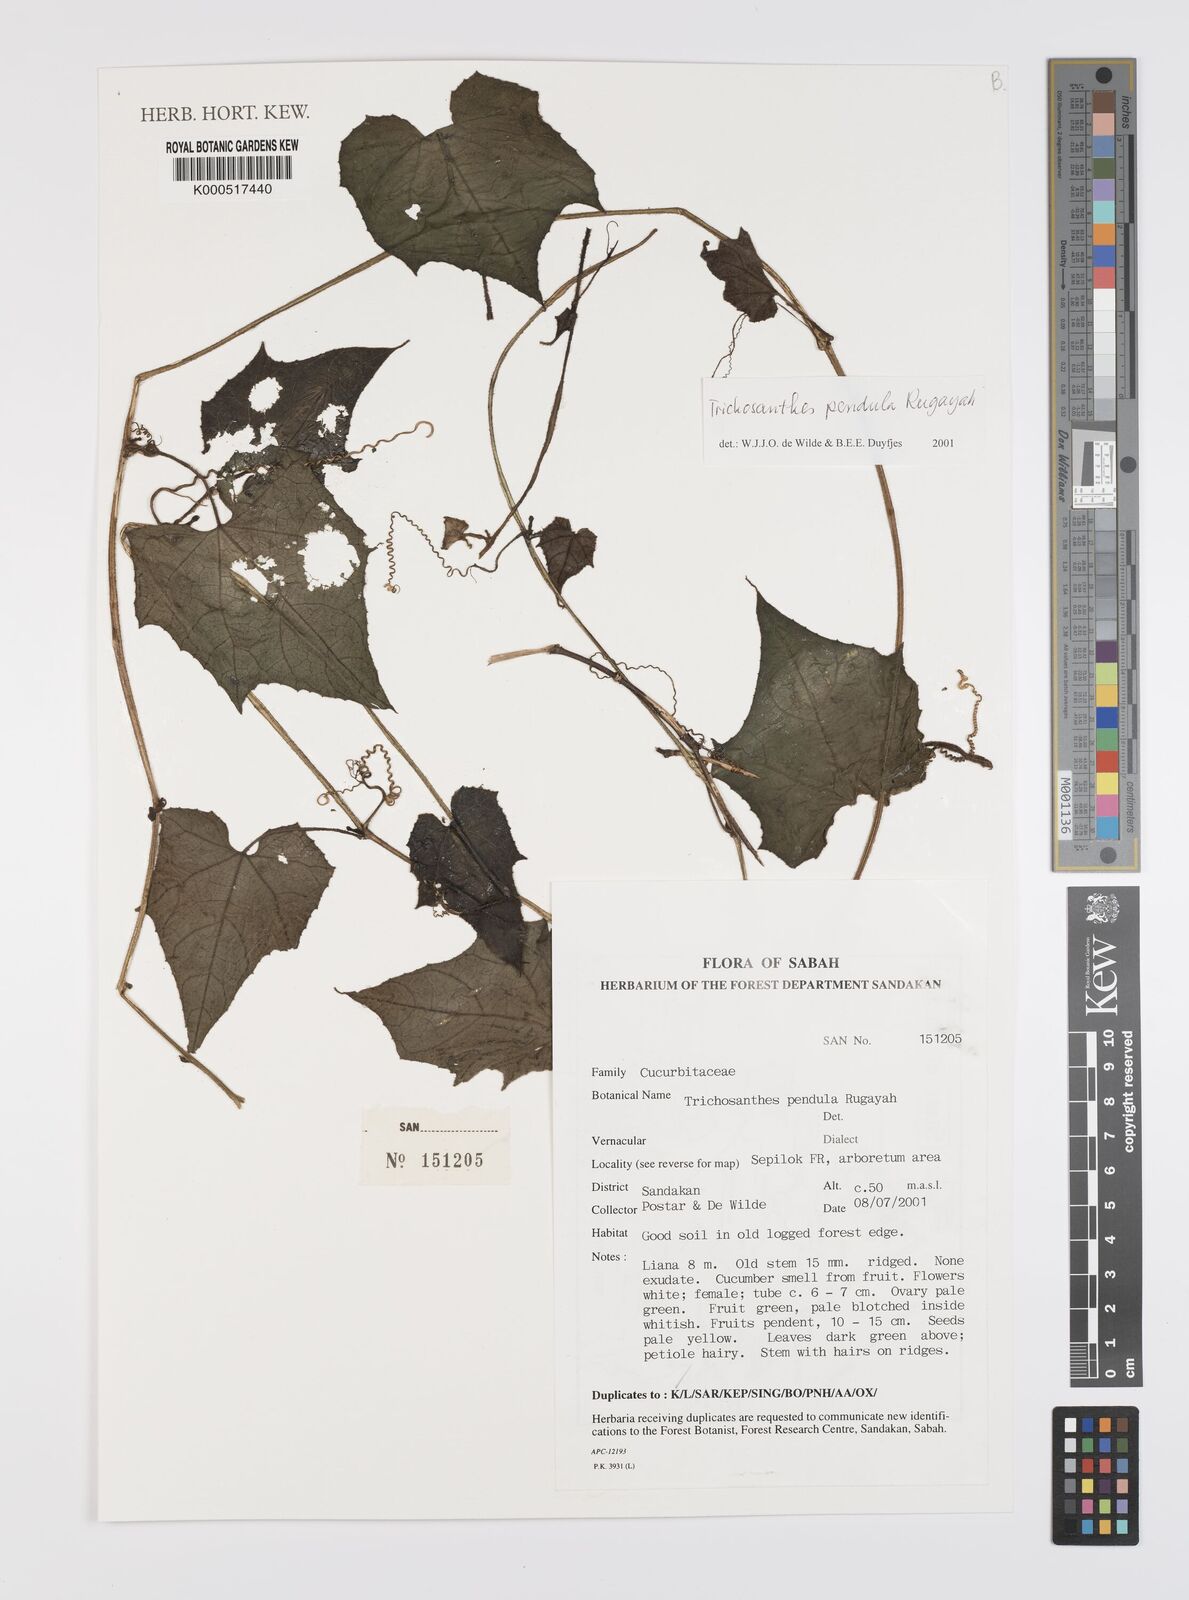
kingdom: Plantae
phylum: Tracheophyta
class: Magnoliopsida
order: Cucurbitales
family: Cucurbitaceae
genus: Trichosanthes
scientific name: Trichosanthes pendula
